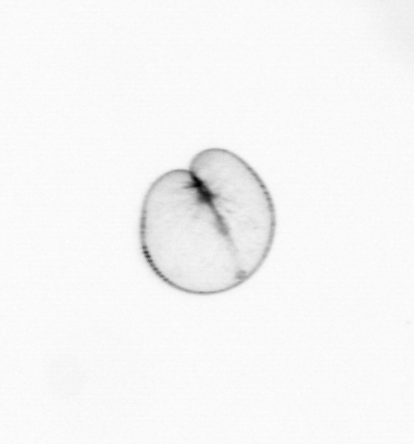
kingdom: Chromista
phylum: Myzozoa
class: Dinophyceae
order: Noctilucales
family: Noctilucaceae
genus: Noctiluca
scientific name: Noctiluca scintillans
